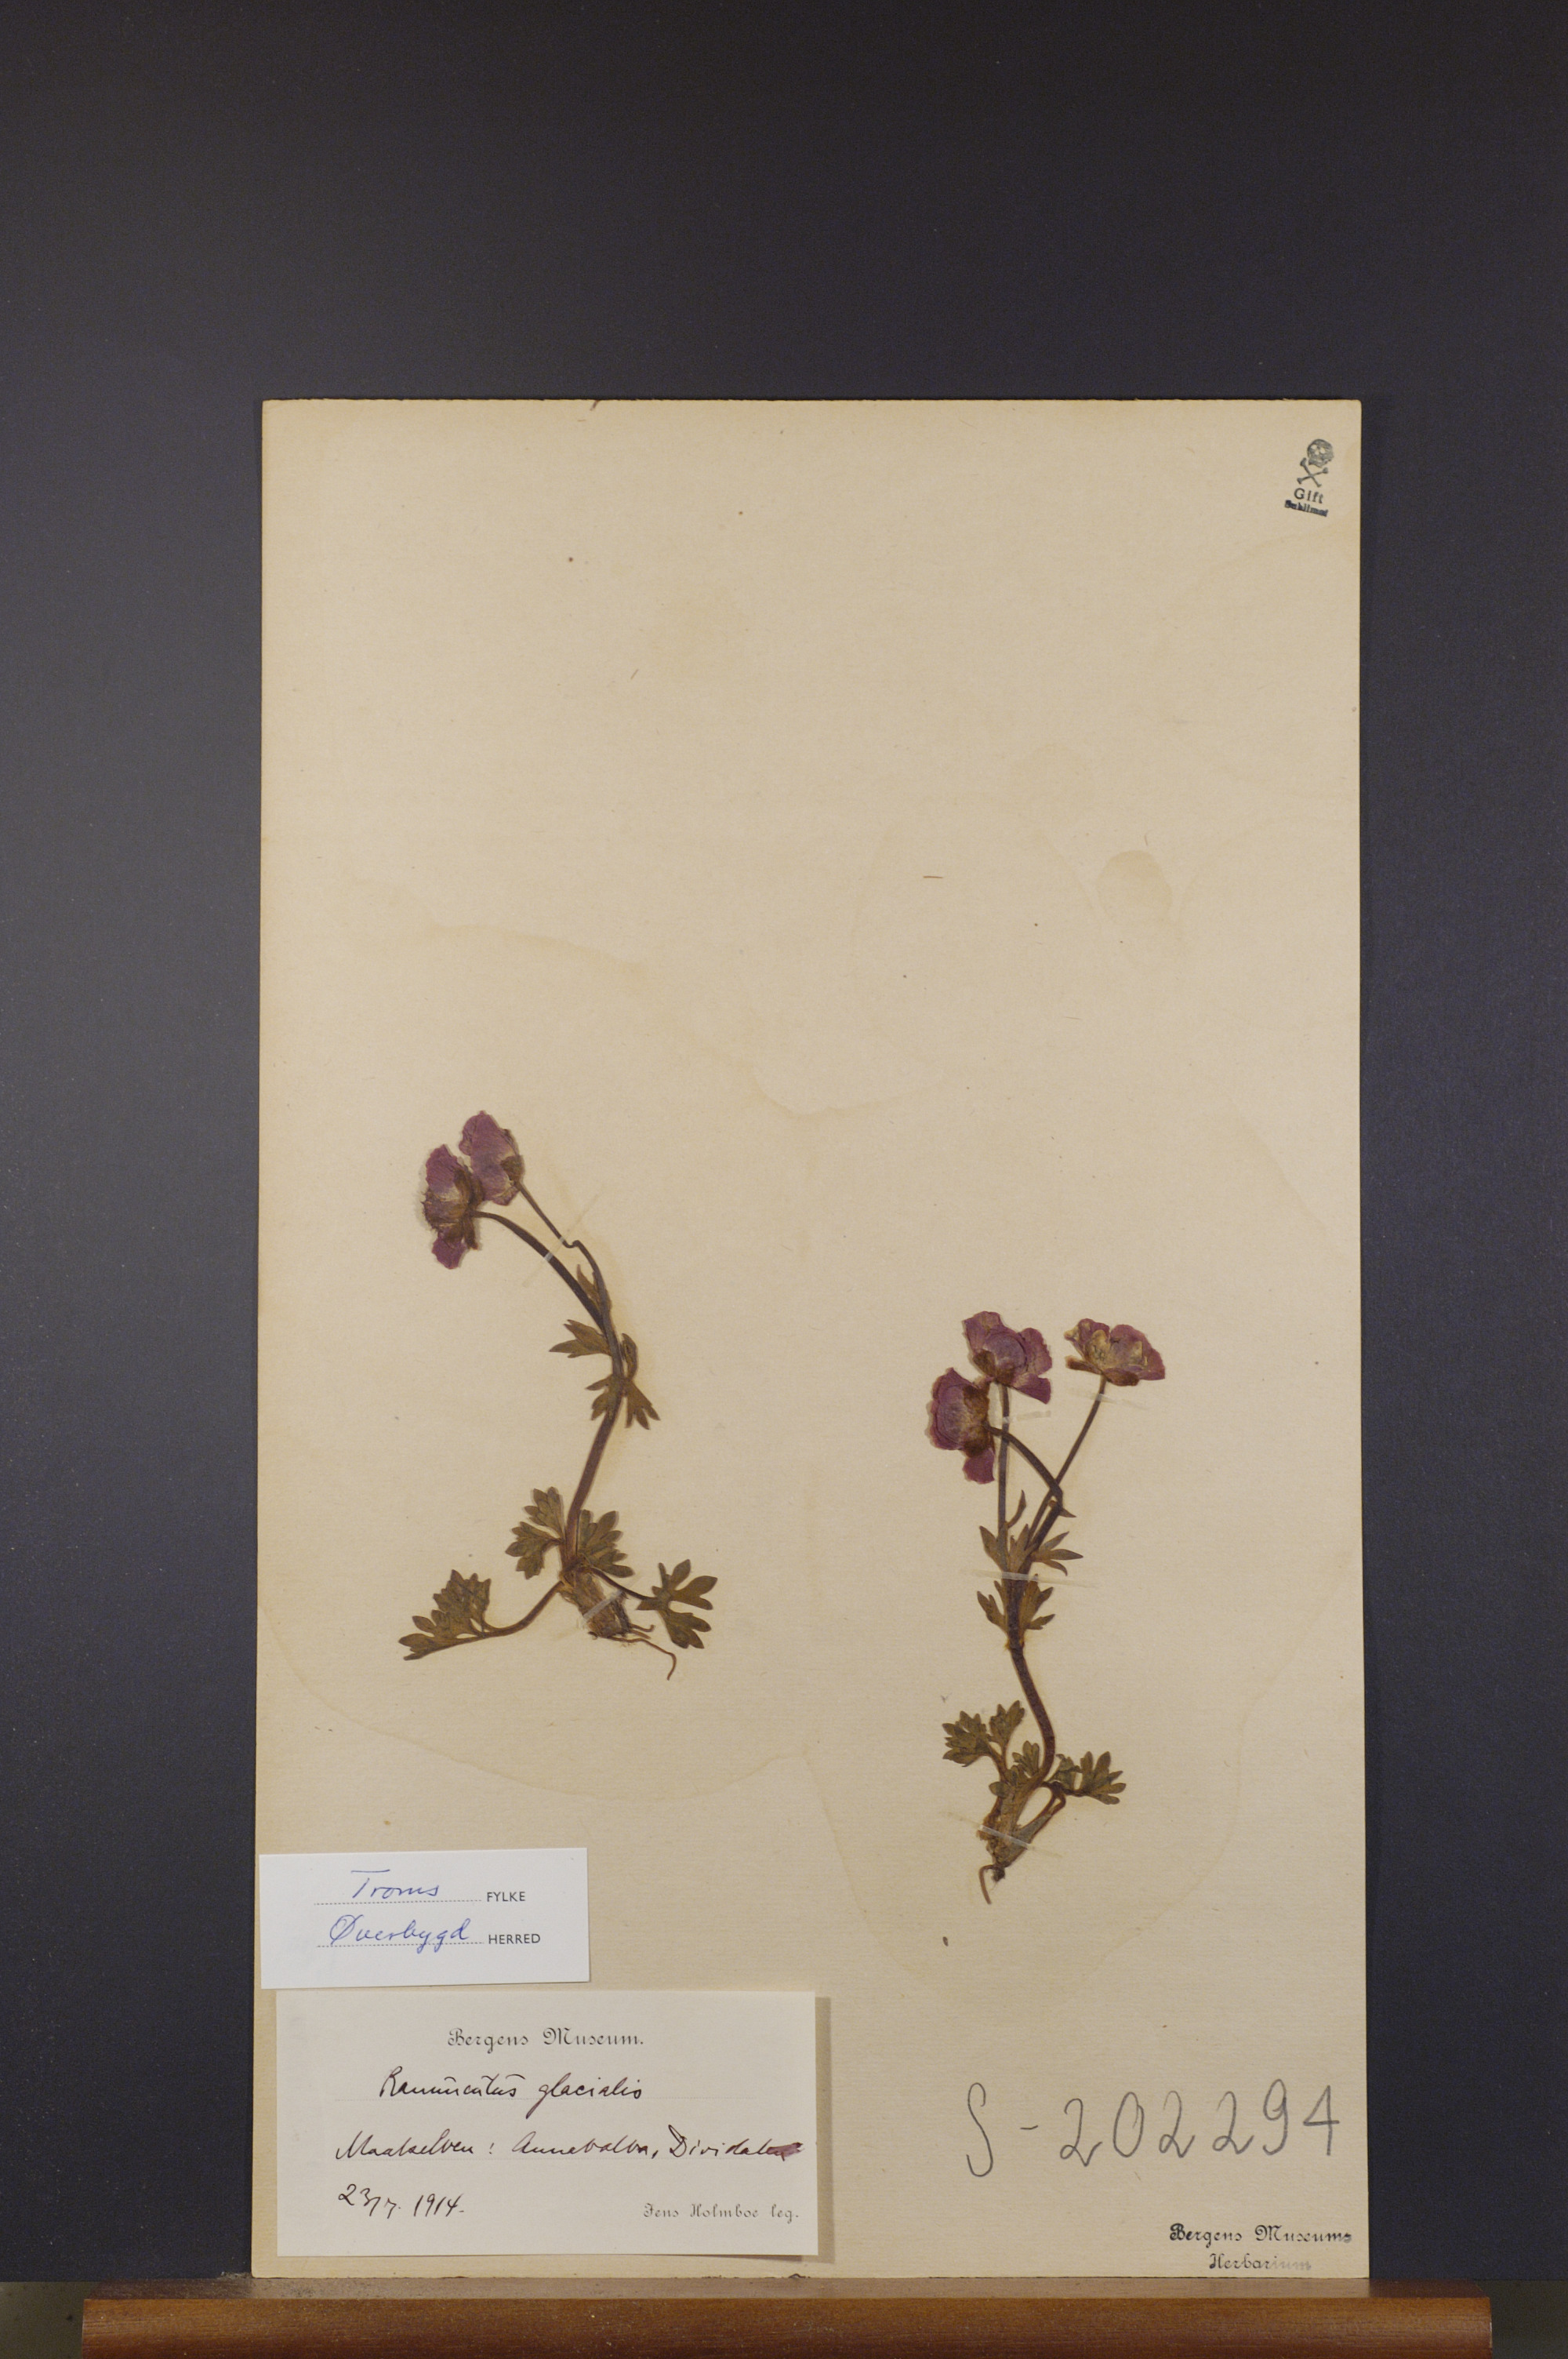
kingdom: Plantae
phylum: Tracheophyta
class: Magnoliopsida
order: Ranunculales
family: Ranunculaceae
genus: Ranunculus
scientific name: Ranunculus glacialis
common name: Glacier buttercup
